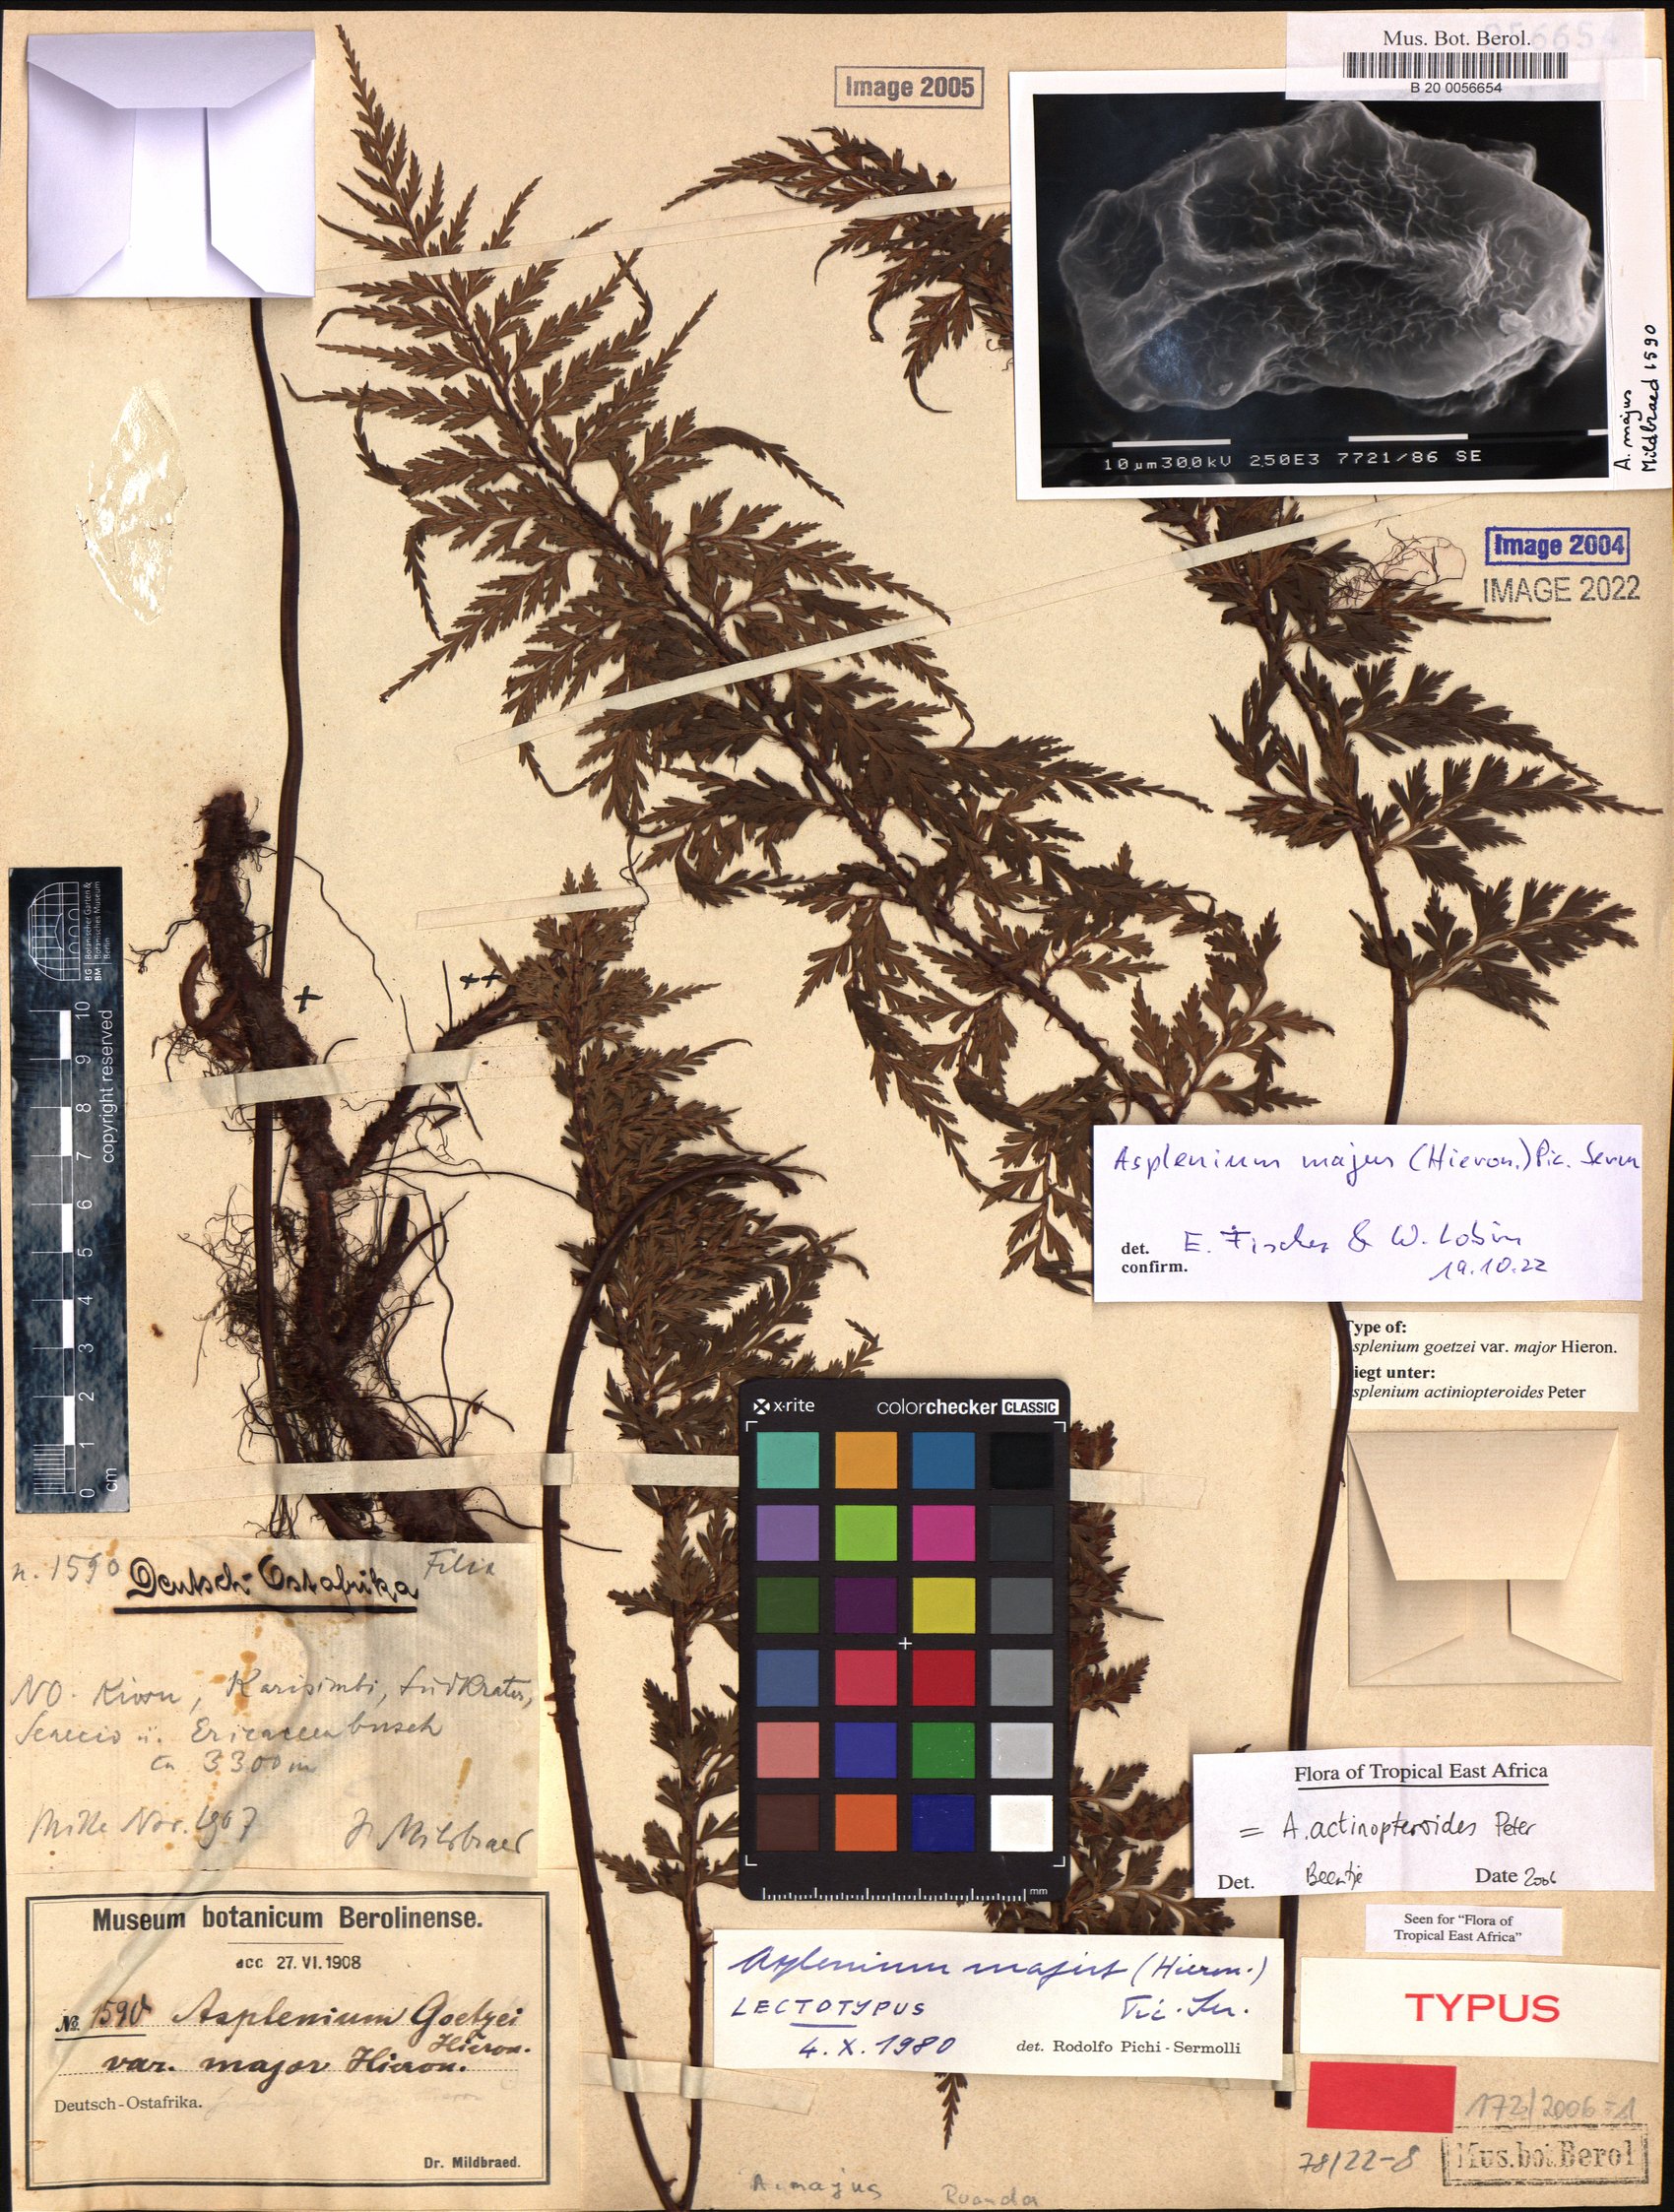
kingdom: Plantae
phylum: Tracheophyta
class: Polypodiopsida
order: Polypodiales
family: Aspleniaceae
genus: Asplenium
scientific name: Asplenium actiniopteroides
